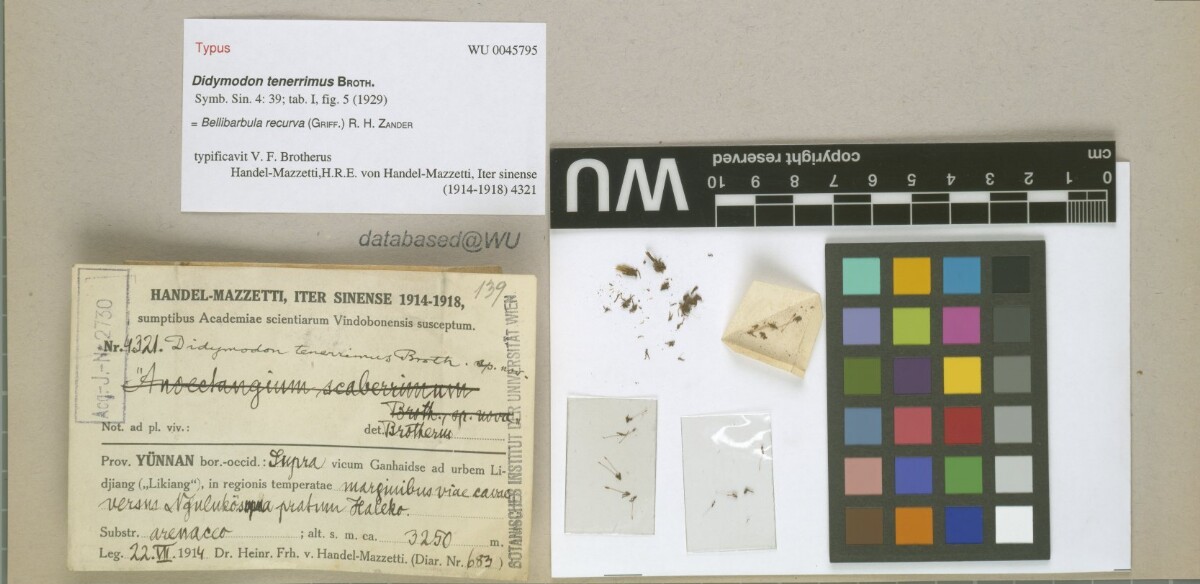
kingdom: Plantae
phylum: Bryophyta
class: Bryopsida
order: Pottiales
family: Pottiaceae
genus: Bellibarbula
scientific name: Bellibarbula recurva
